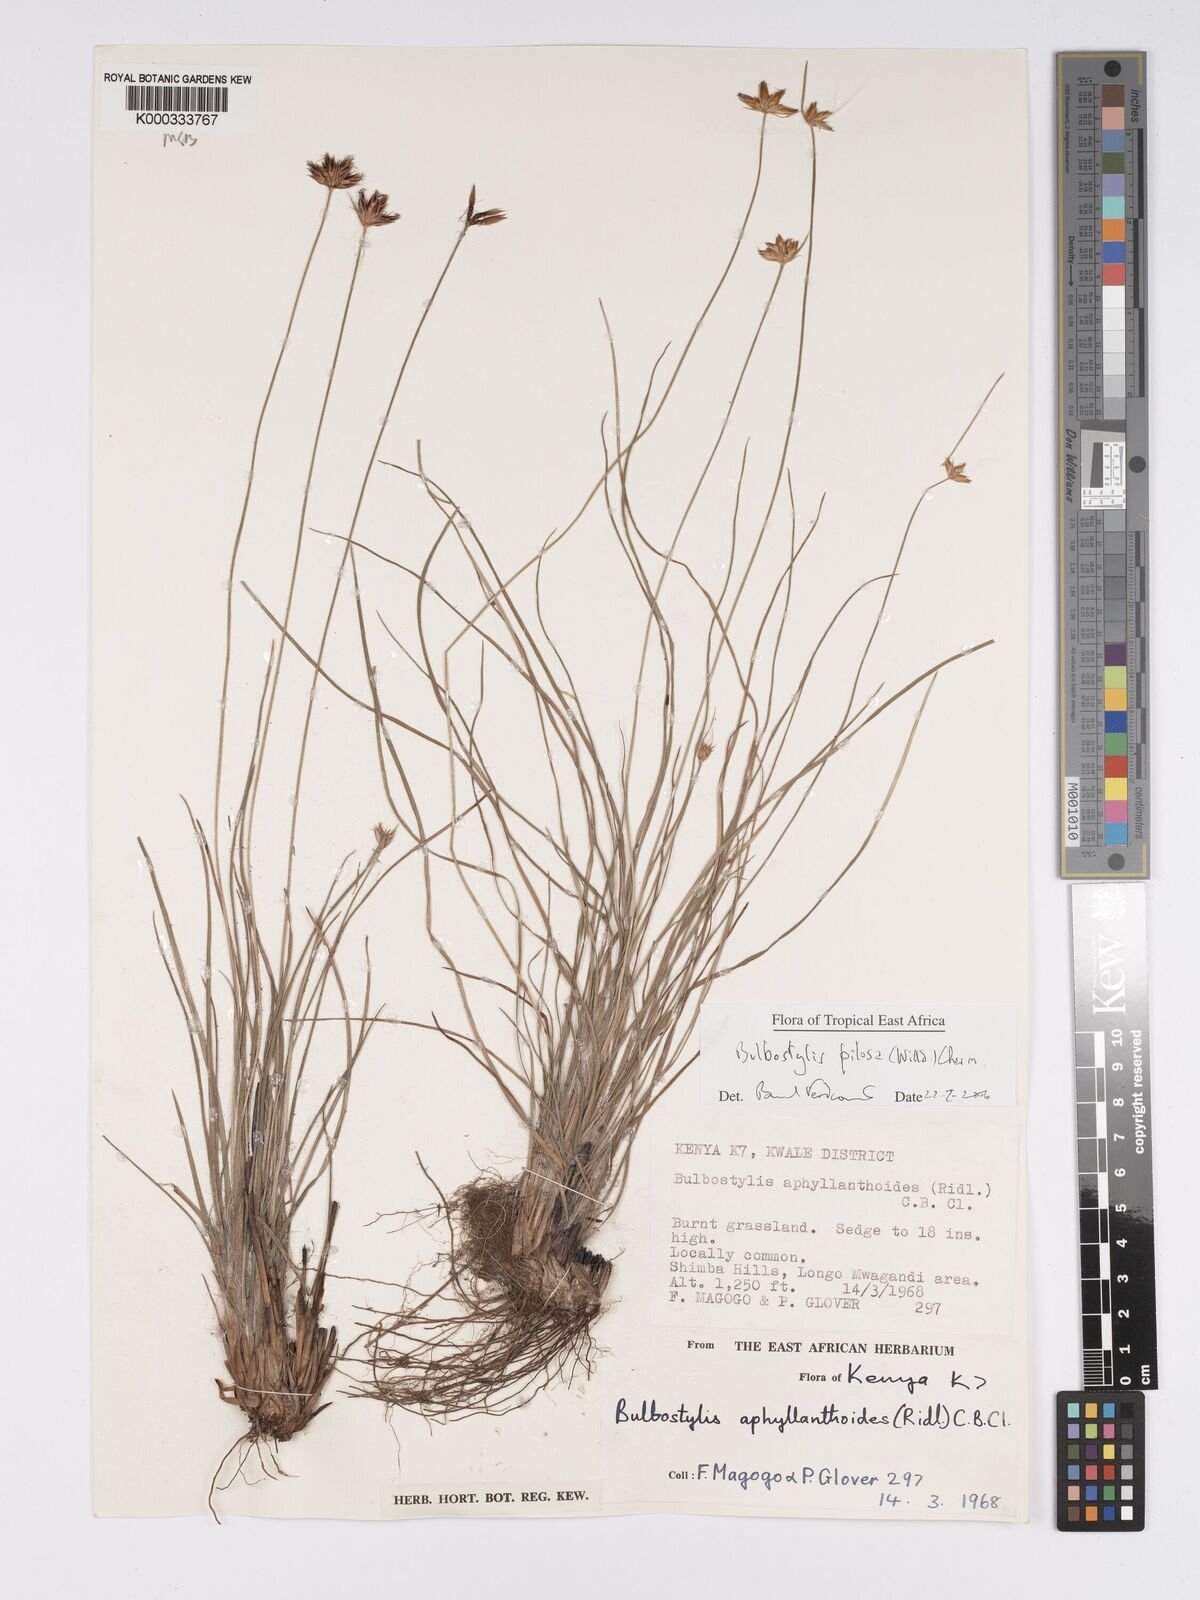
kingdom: Plantae
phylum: Tracheophyta
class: Liliopsida
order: Poales
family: Cyperaceae
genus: Bulbostylis
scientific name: Bulbostylis pilosa
